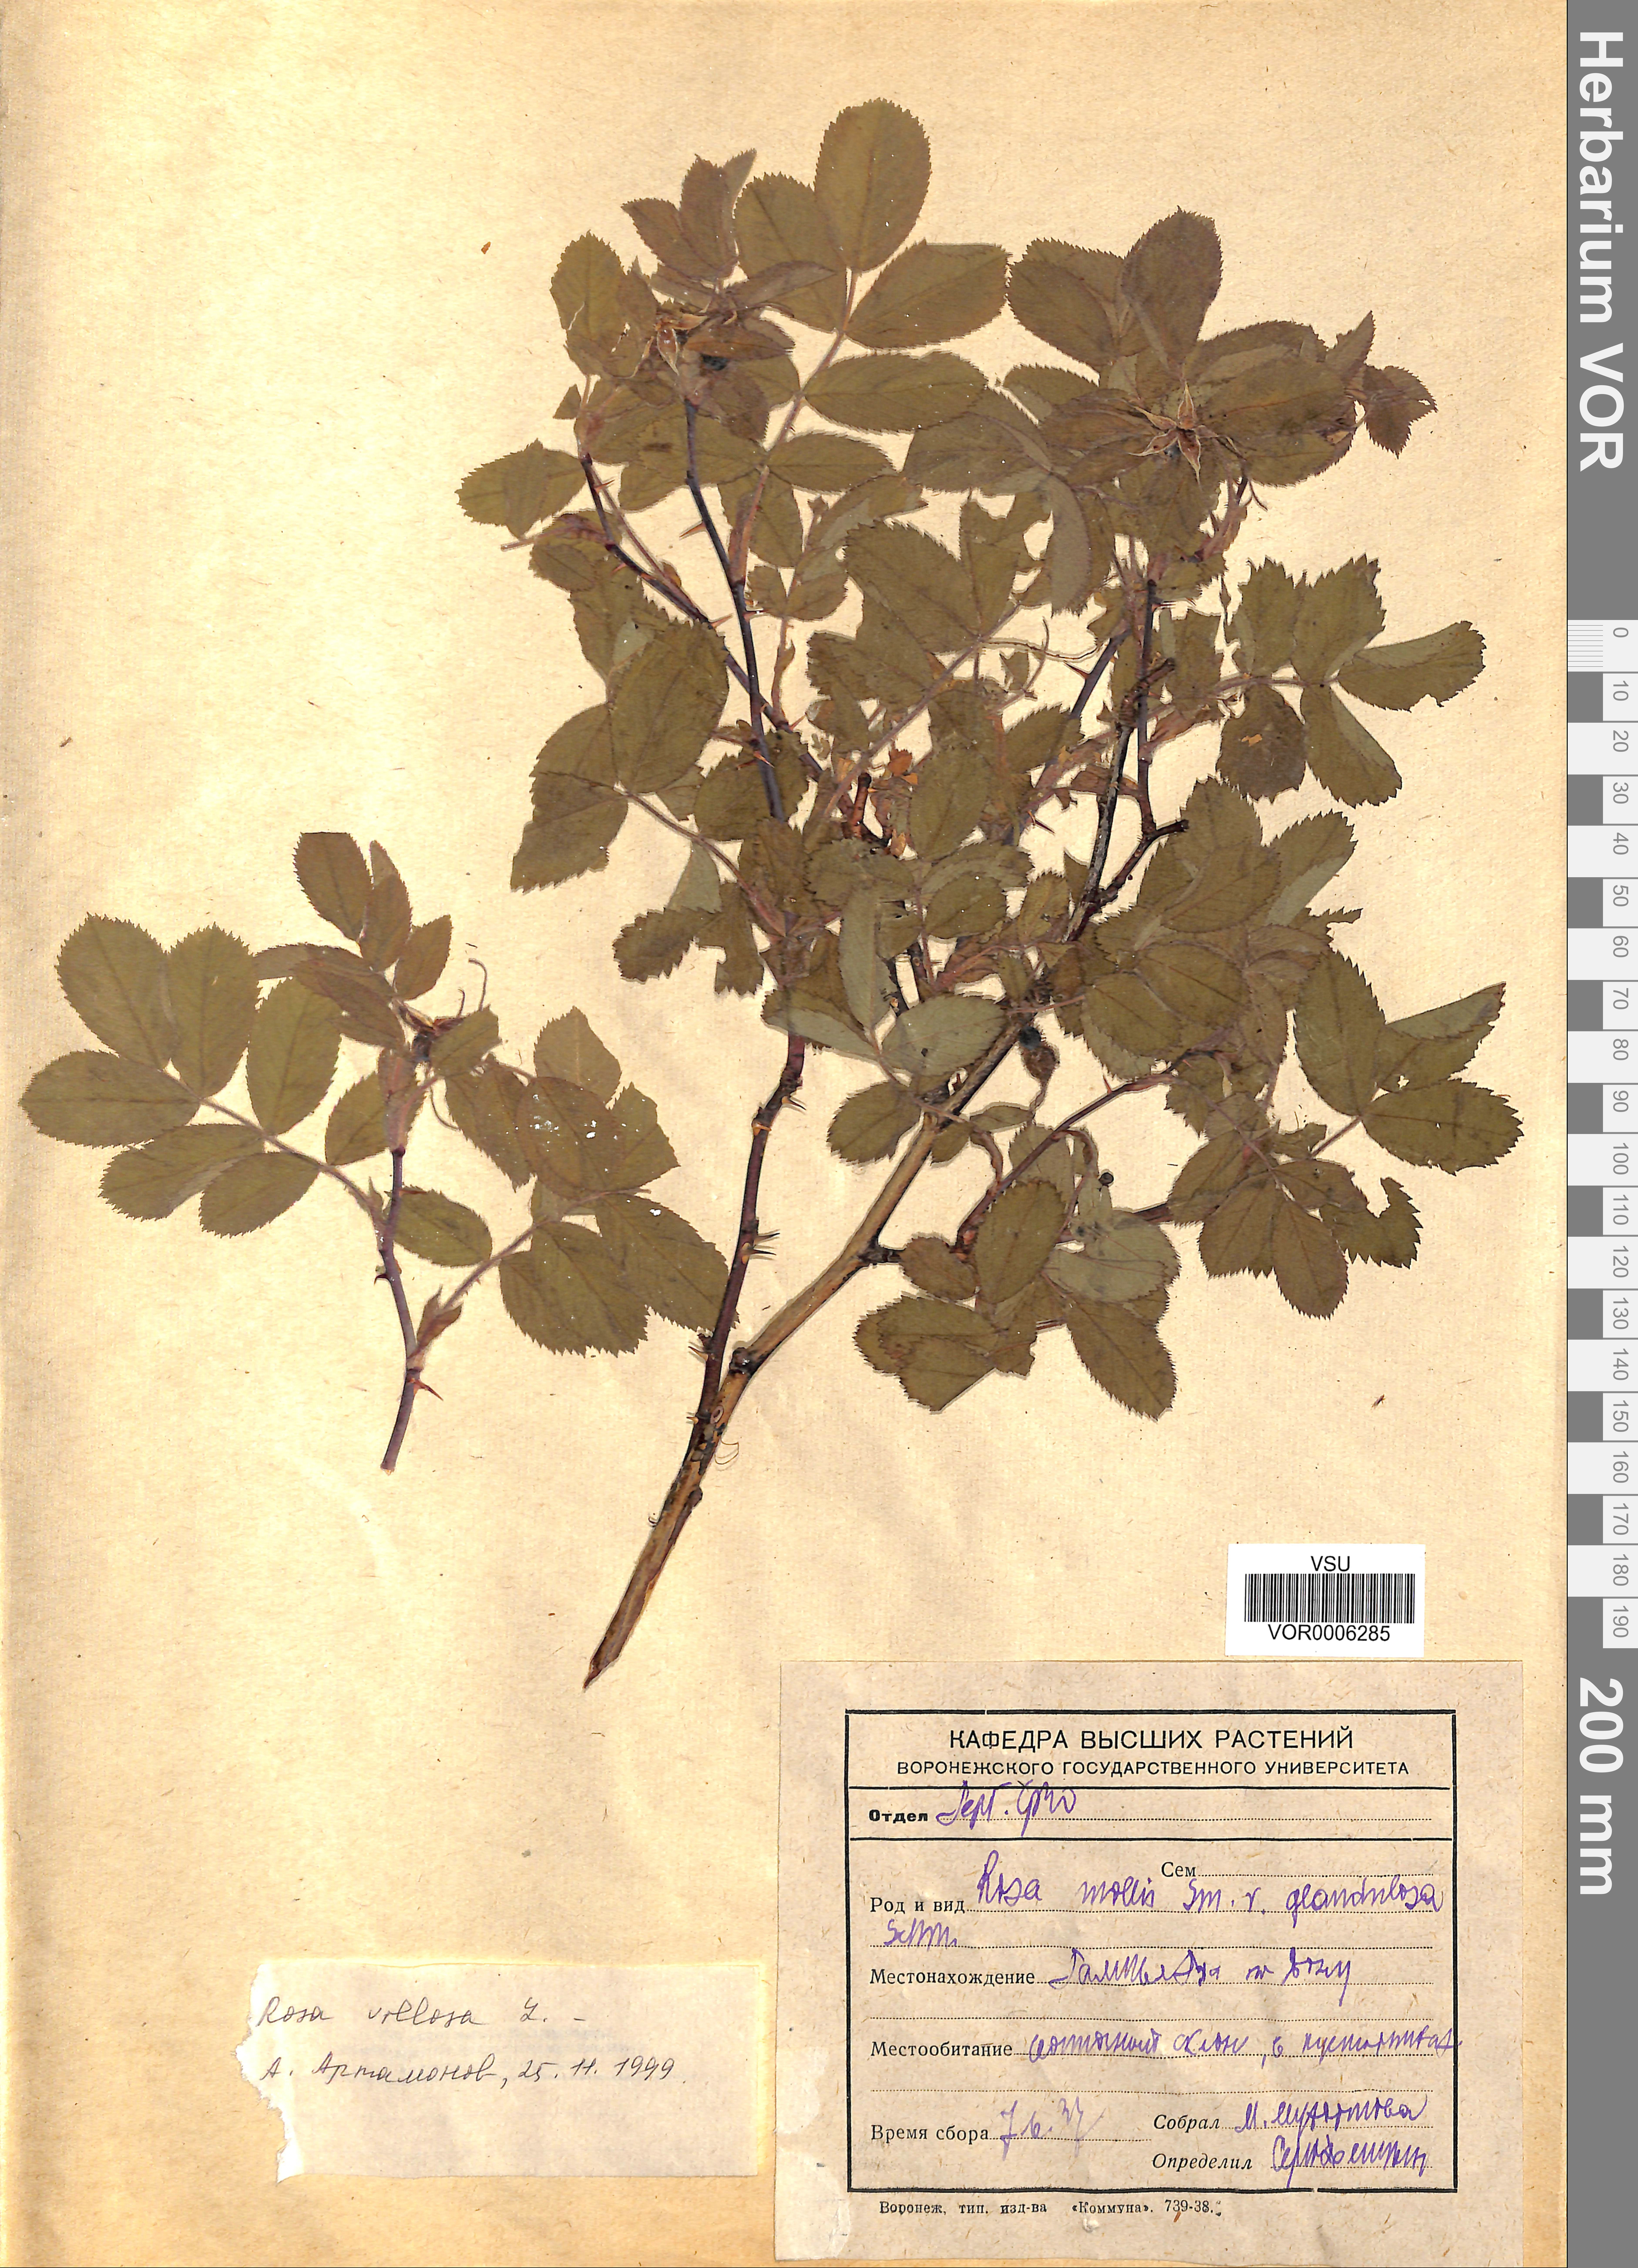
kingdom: Plantae
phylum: Tracheophyta
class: Magnoliopsida
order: Rosales
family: Rosaceae
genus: Rosa
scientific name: Rosa villosa
